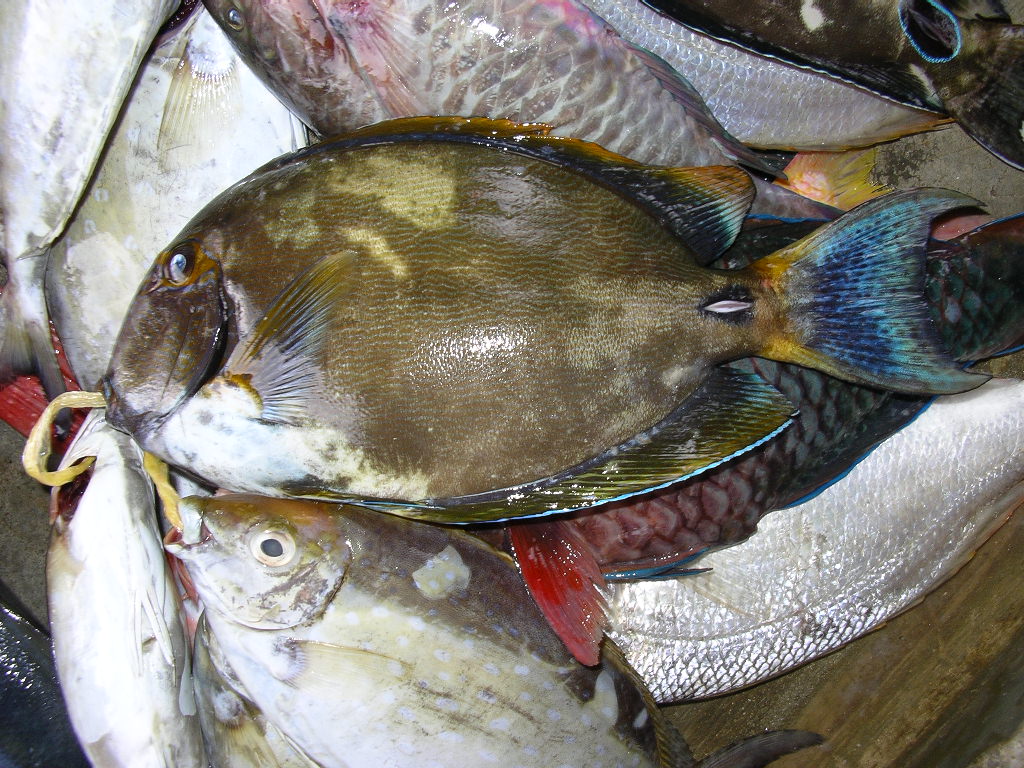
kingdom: Animalia
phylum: Chordata
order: Perciformes
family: Acanthuridae
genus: Acanthurus
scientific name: Acanthurus dussumieri
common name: Dussumier's surgeonfish
